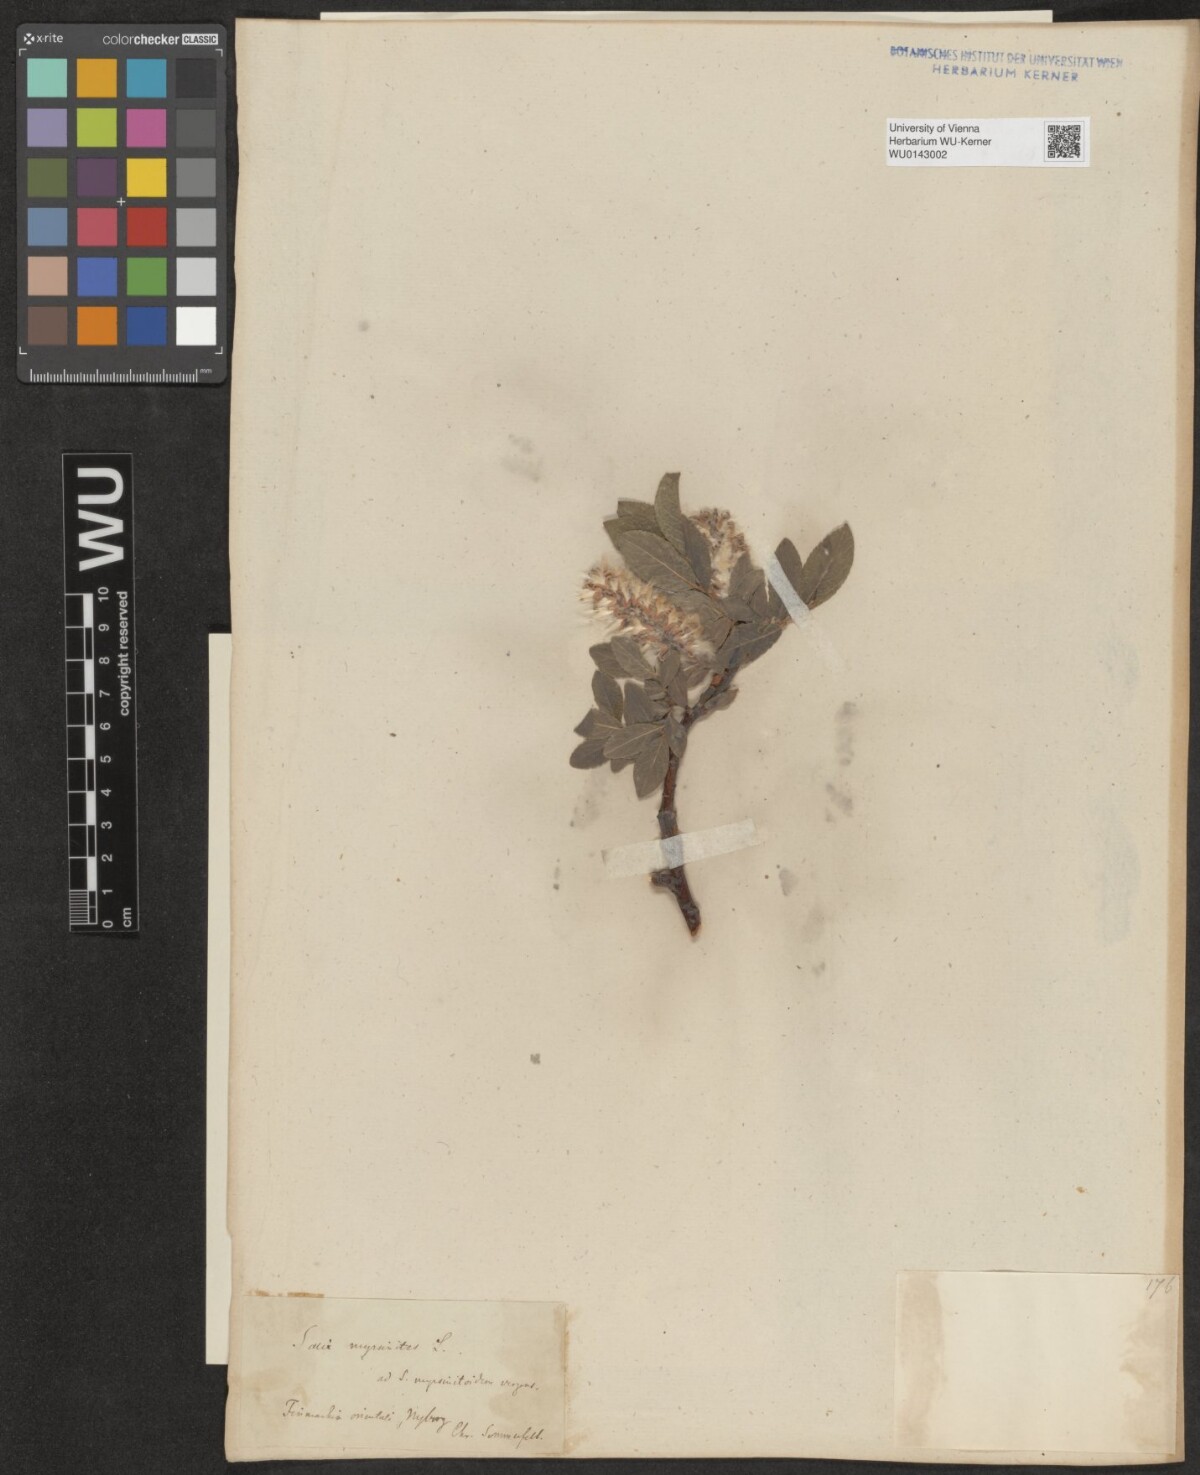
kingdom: Plantae
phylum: Tracheophyta
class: Magnoliopsida
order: Malpighiales
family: Salicaceae
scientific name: Salicaceae
